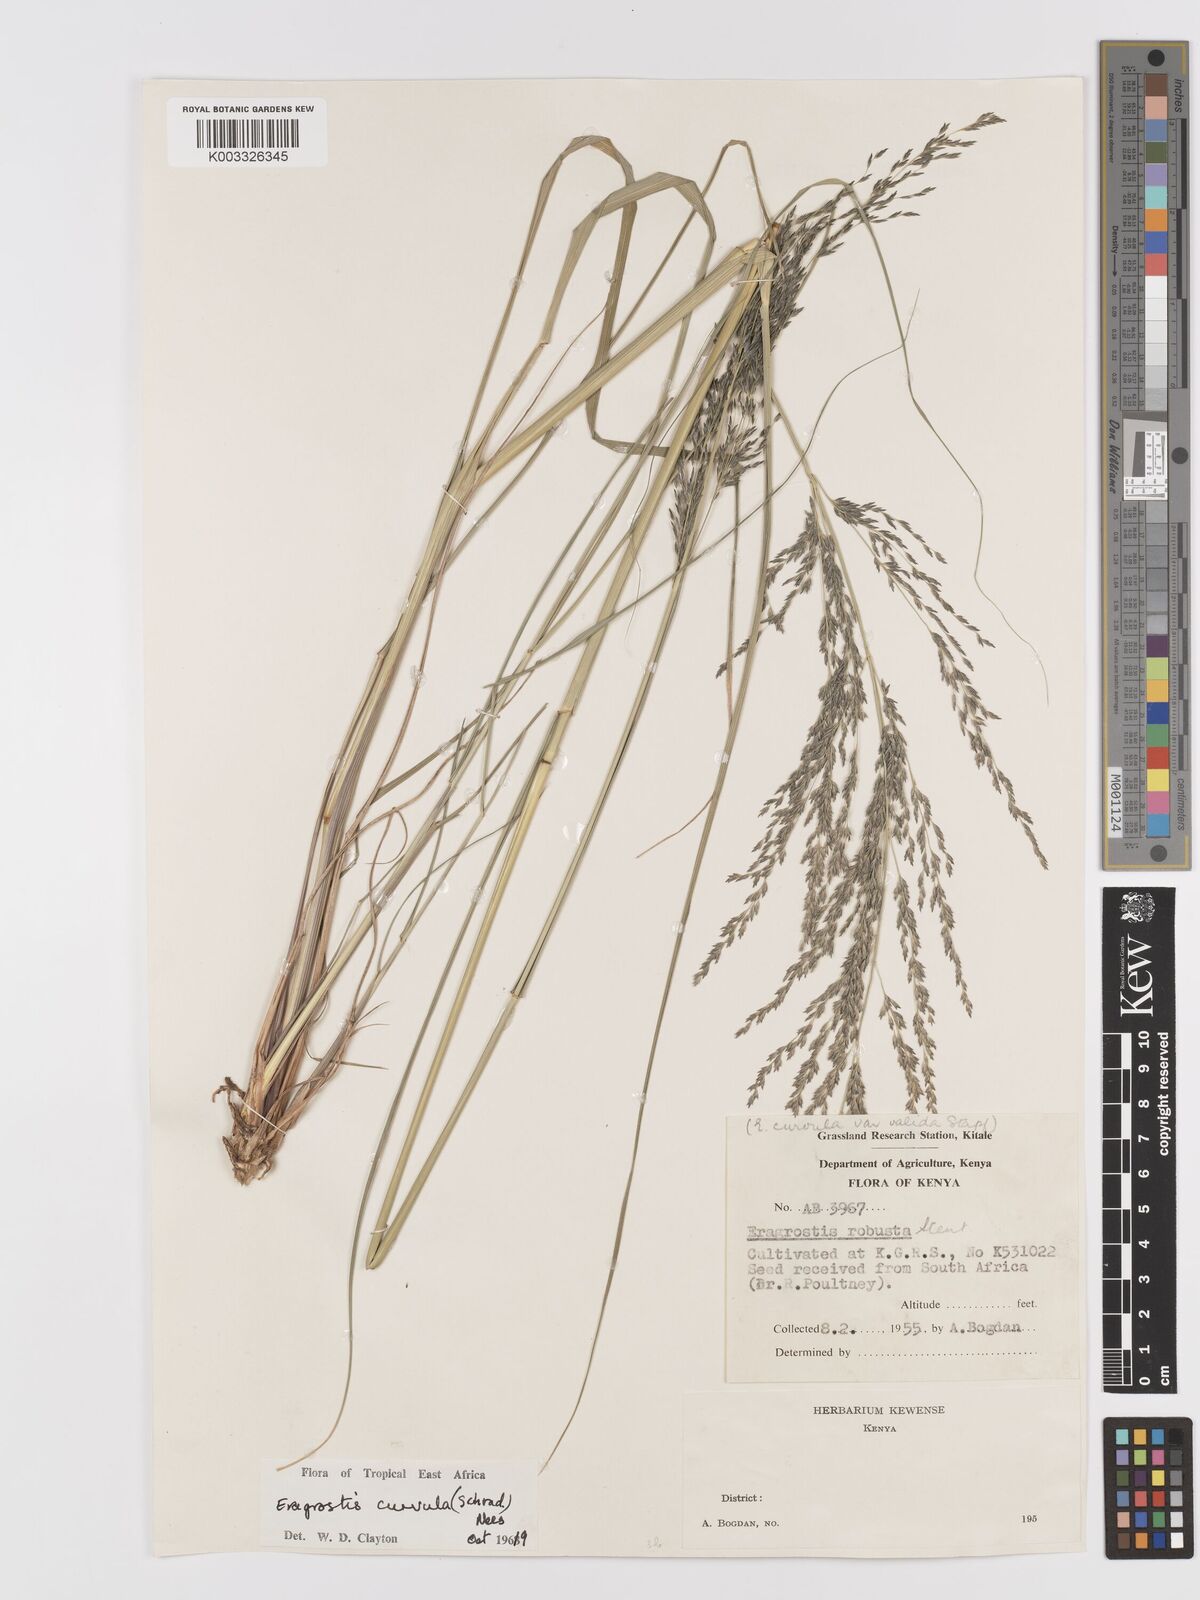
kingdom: Plantae
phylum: Tracheophyta
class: Liliopsida
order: Poales
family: Poaceae
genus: Eragrostis
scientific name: Eragrostis curvula
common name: African love-grass
